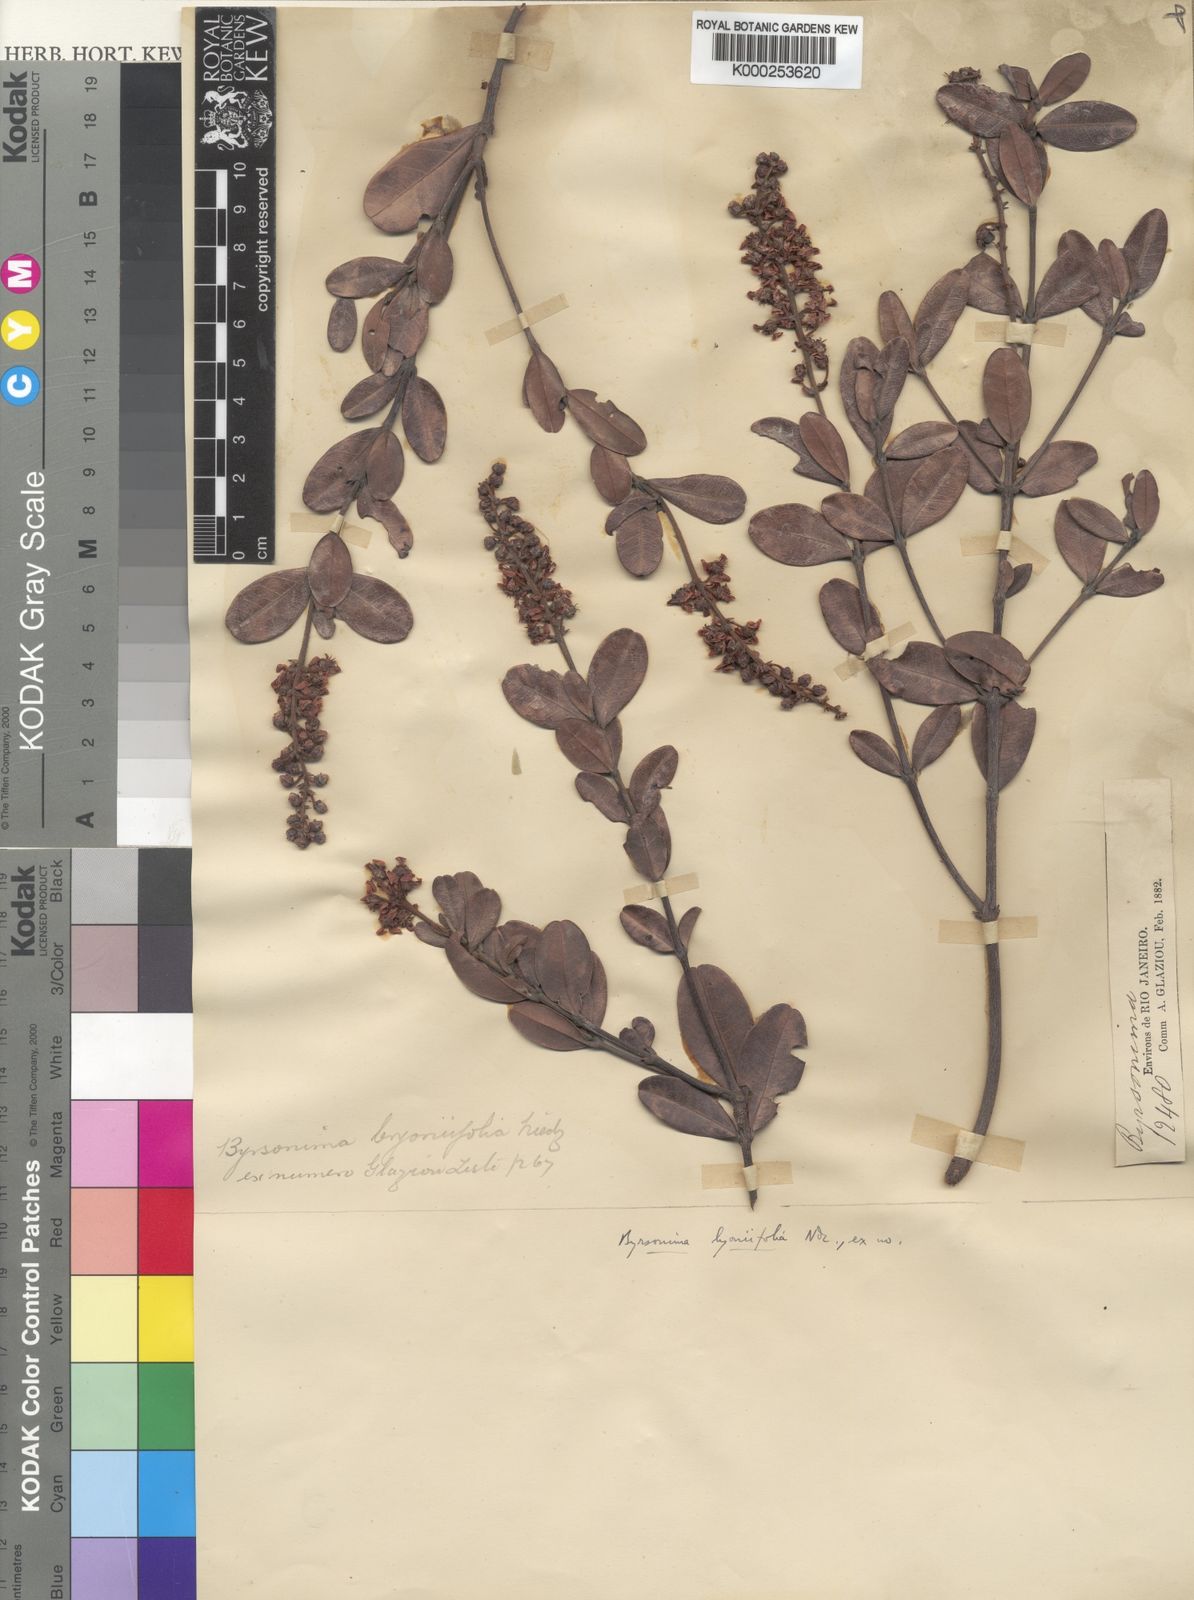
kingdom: Plantae
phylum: Tracheophyta
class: Magnoliopsida
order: Malpighiales
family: Malpighiaceae
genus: Byrsonima
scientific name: Byrsonima lyoniifolia
